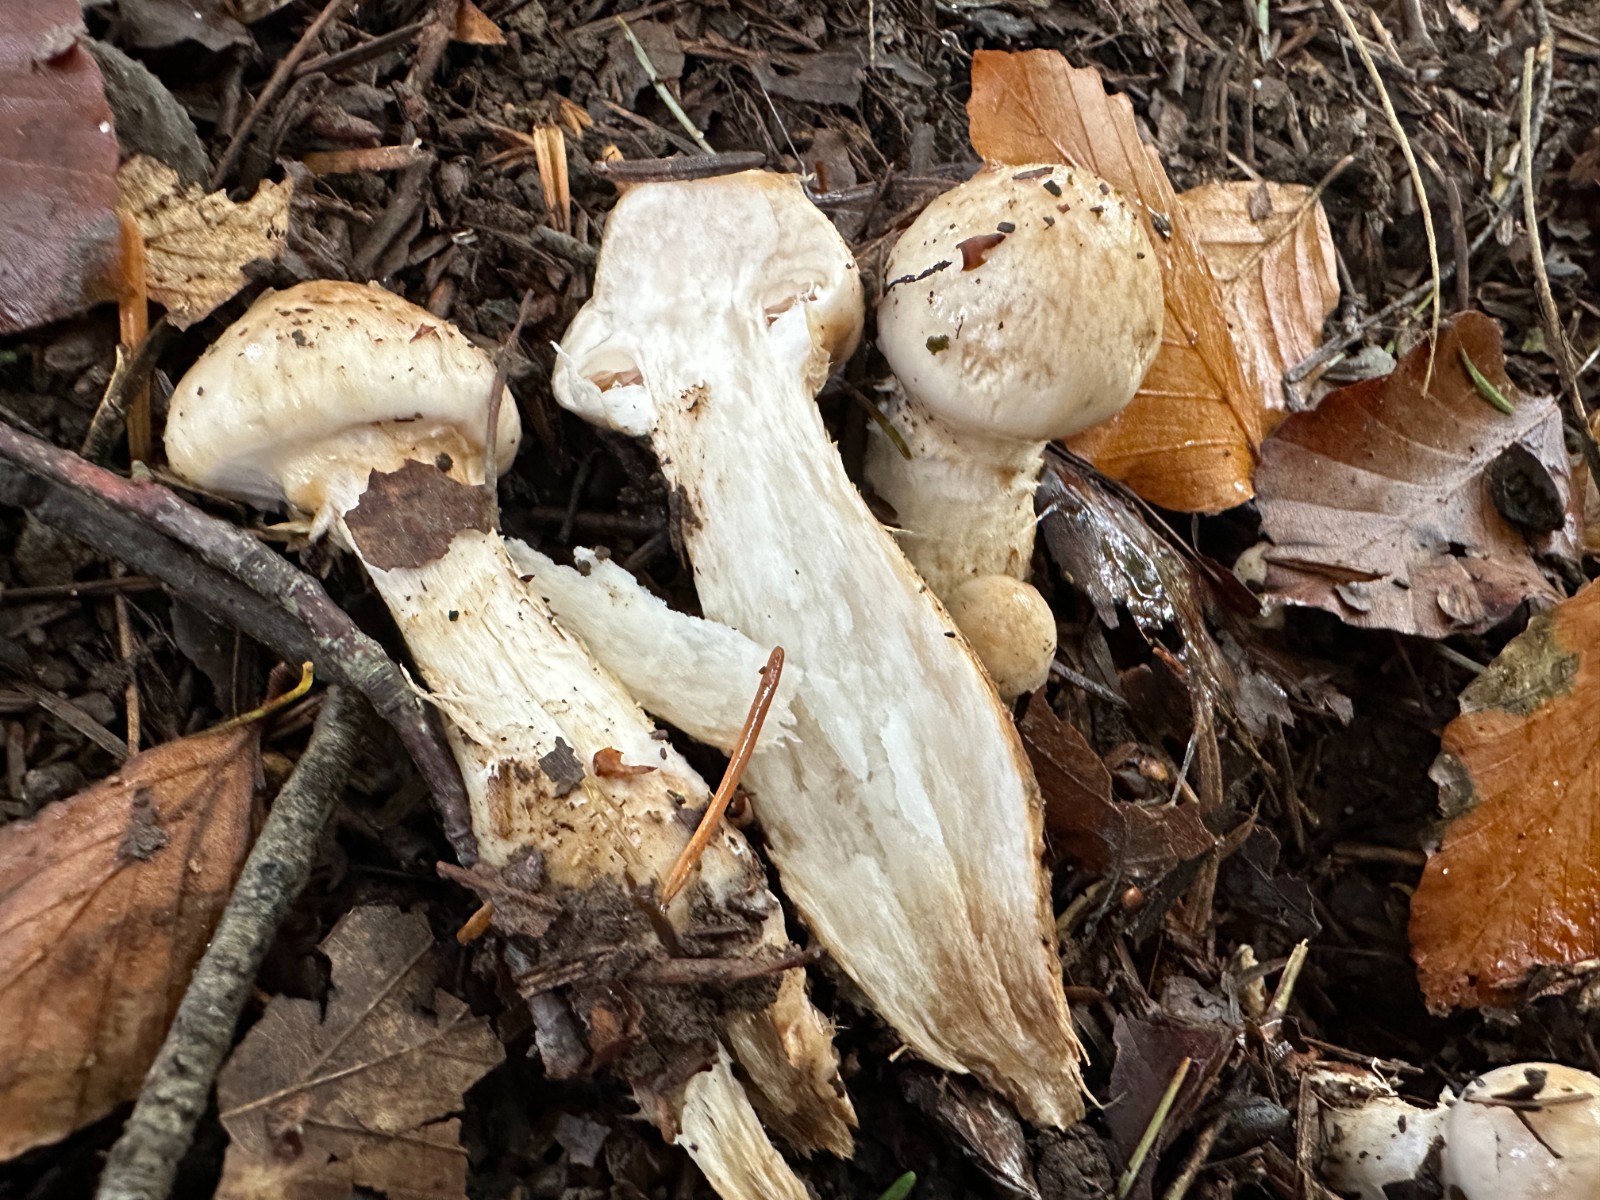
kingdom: Fungi
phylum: Basidiomycota
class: Agaricomycetes
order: Agaricales
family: Hymenogastraceae
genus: Hebeloma
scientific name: Hebeloma radicosum
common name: pælerods-tåreblad
